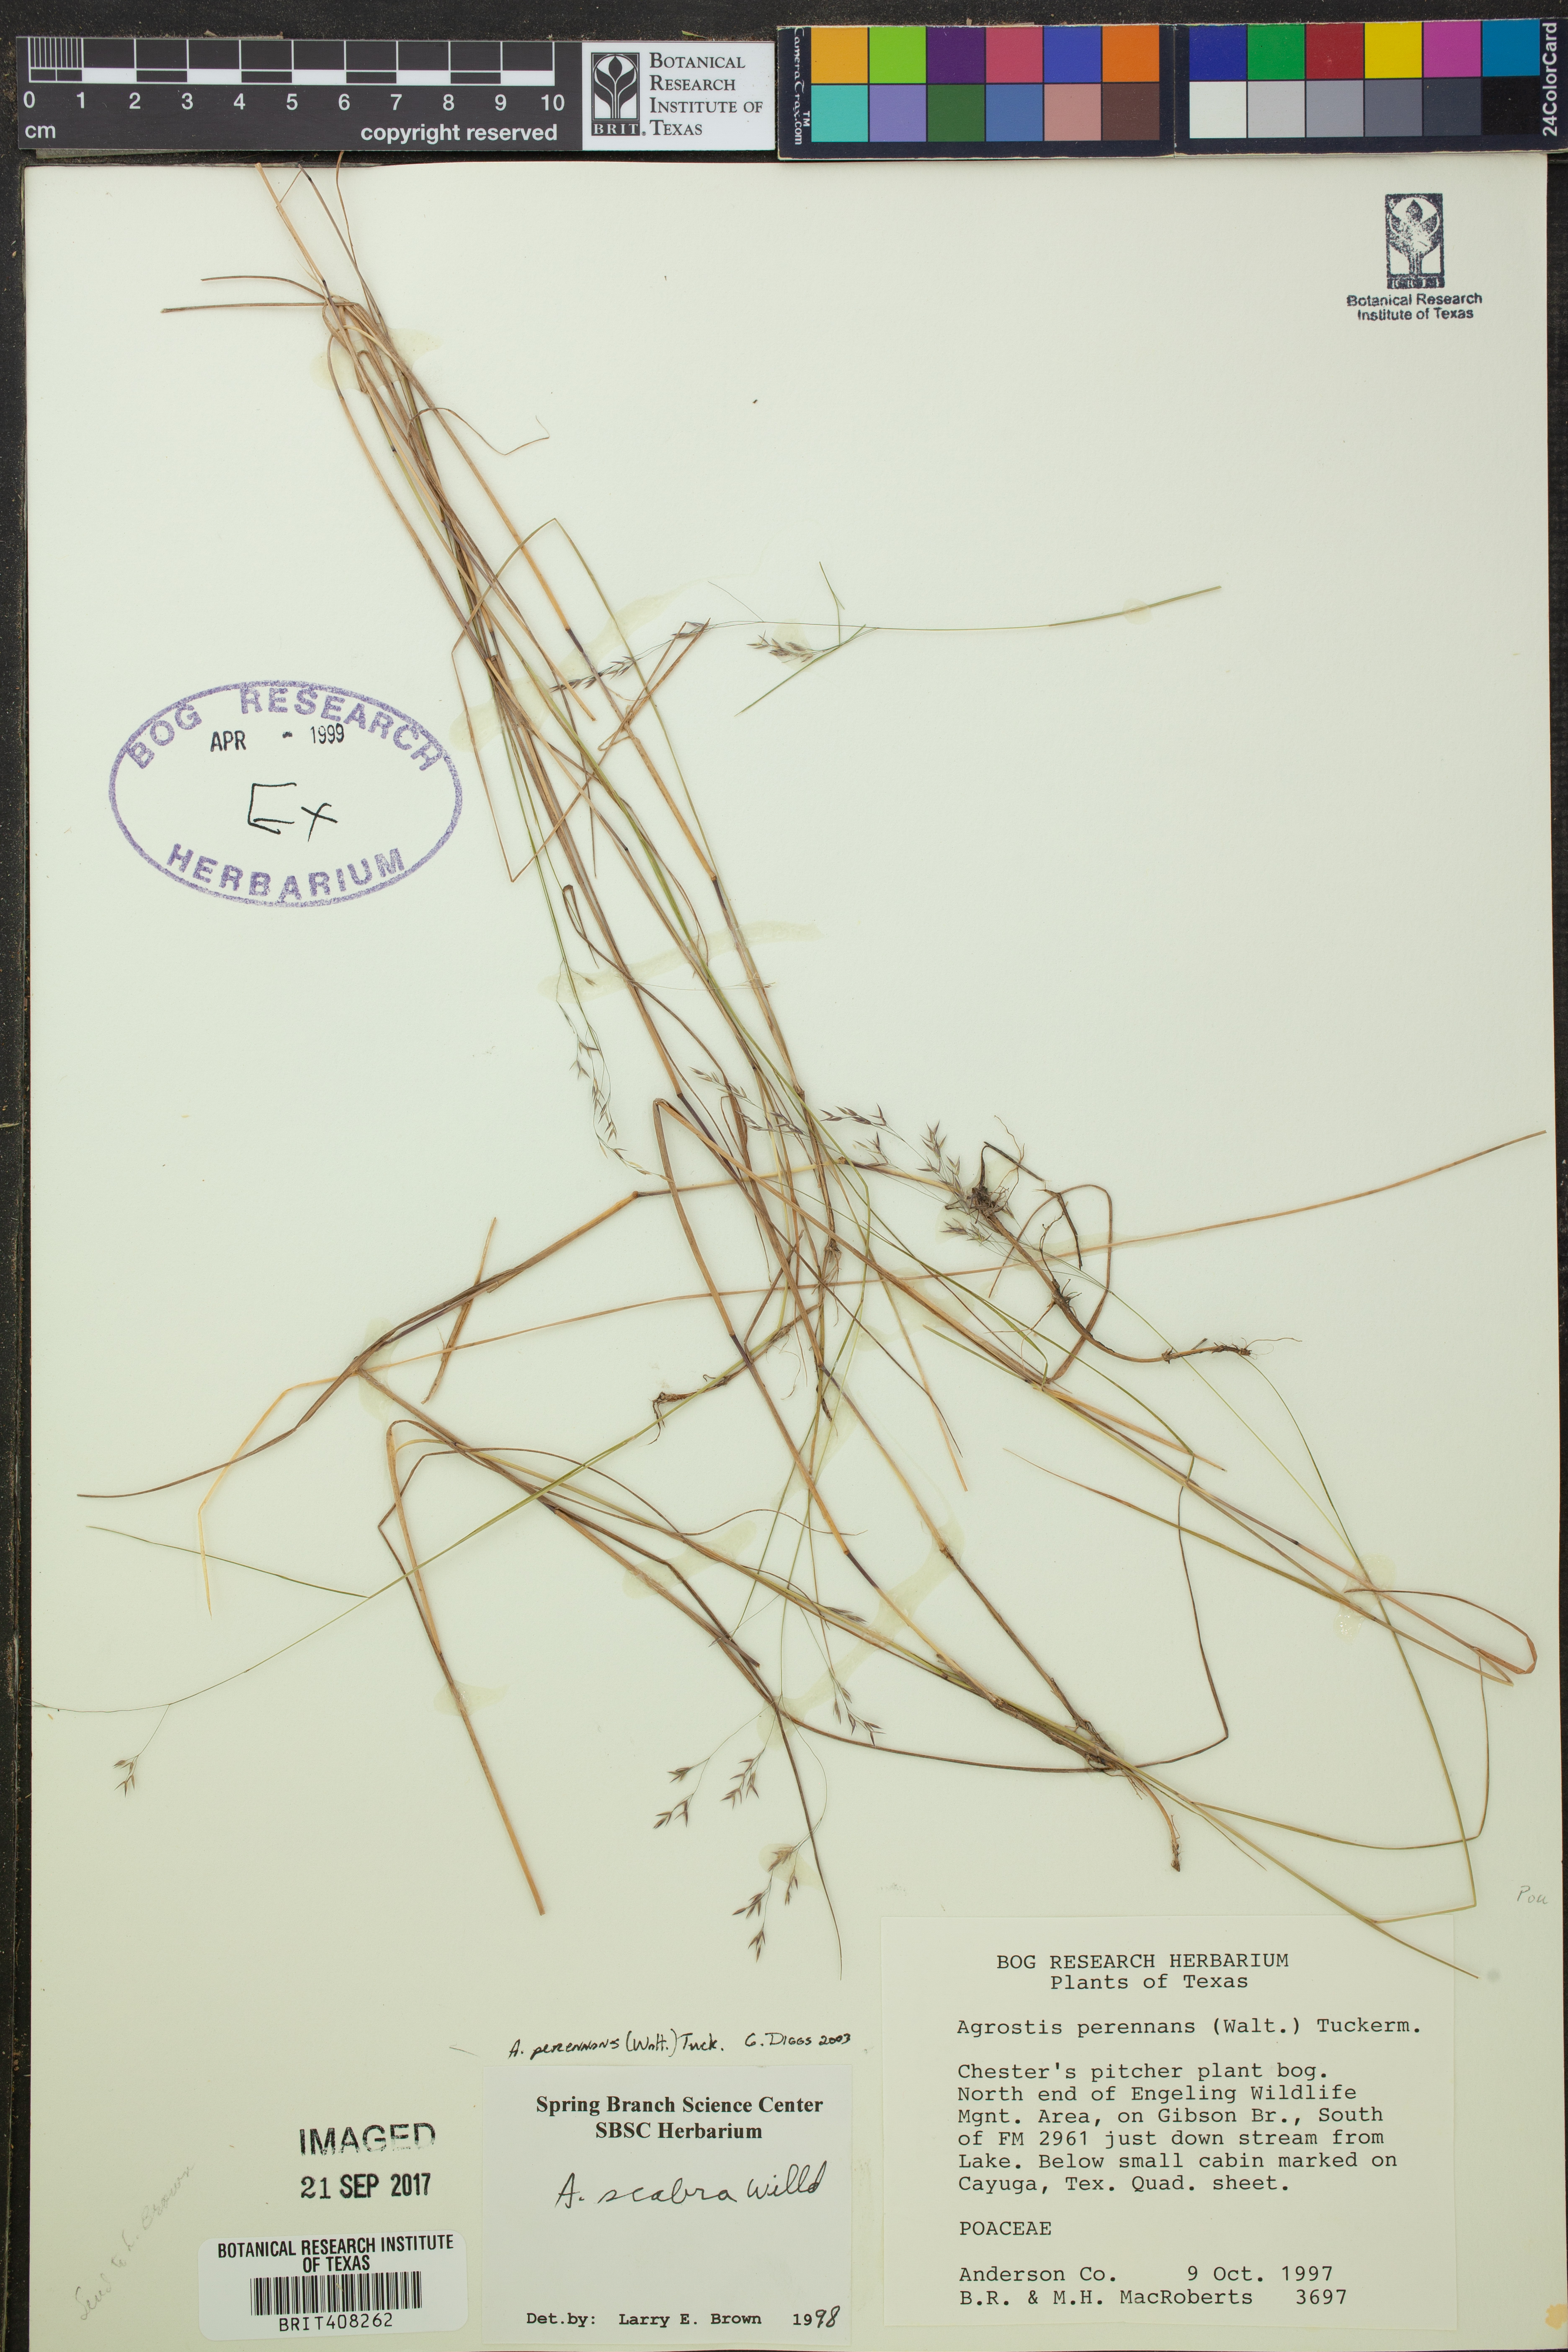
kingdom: Plantae
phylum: Tracheophyta
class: Liliopsida
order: Poales
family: Poaceae
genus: Agrostis
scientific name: Agrostis perennans
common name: Autumn bent
